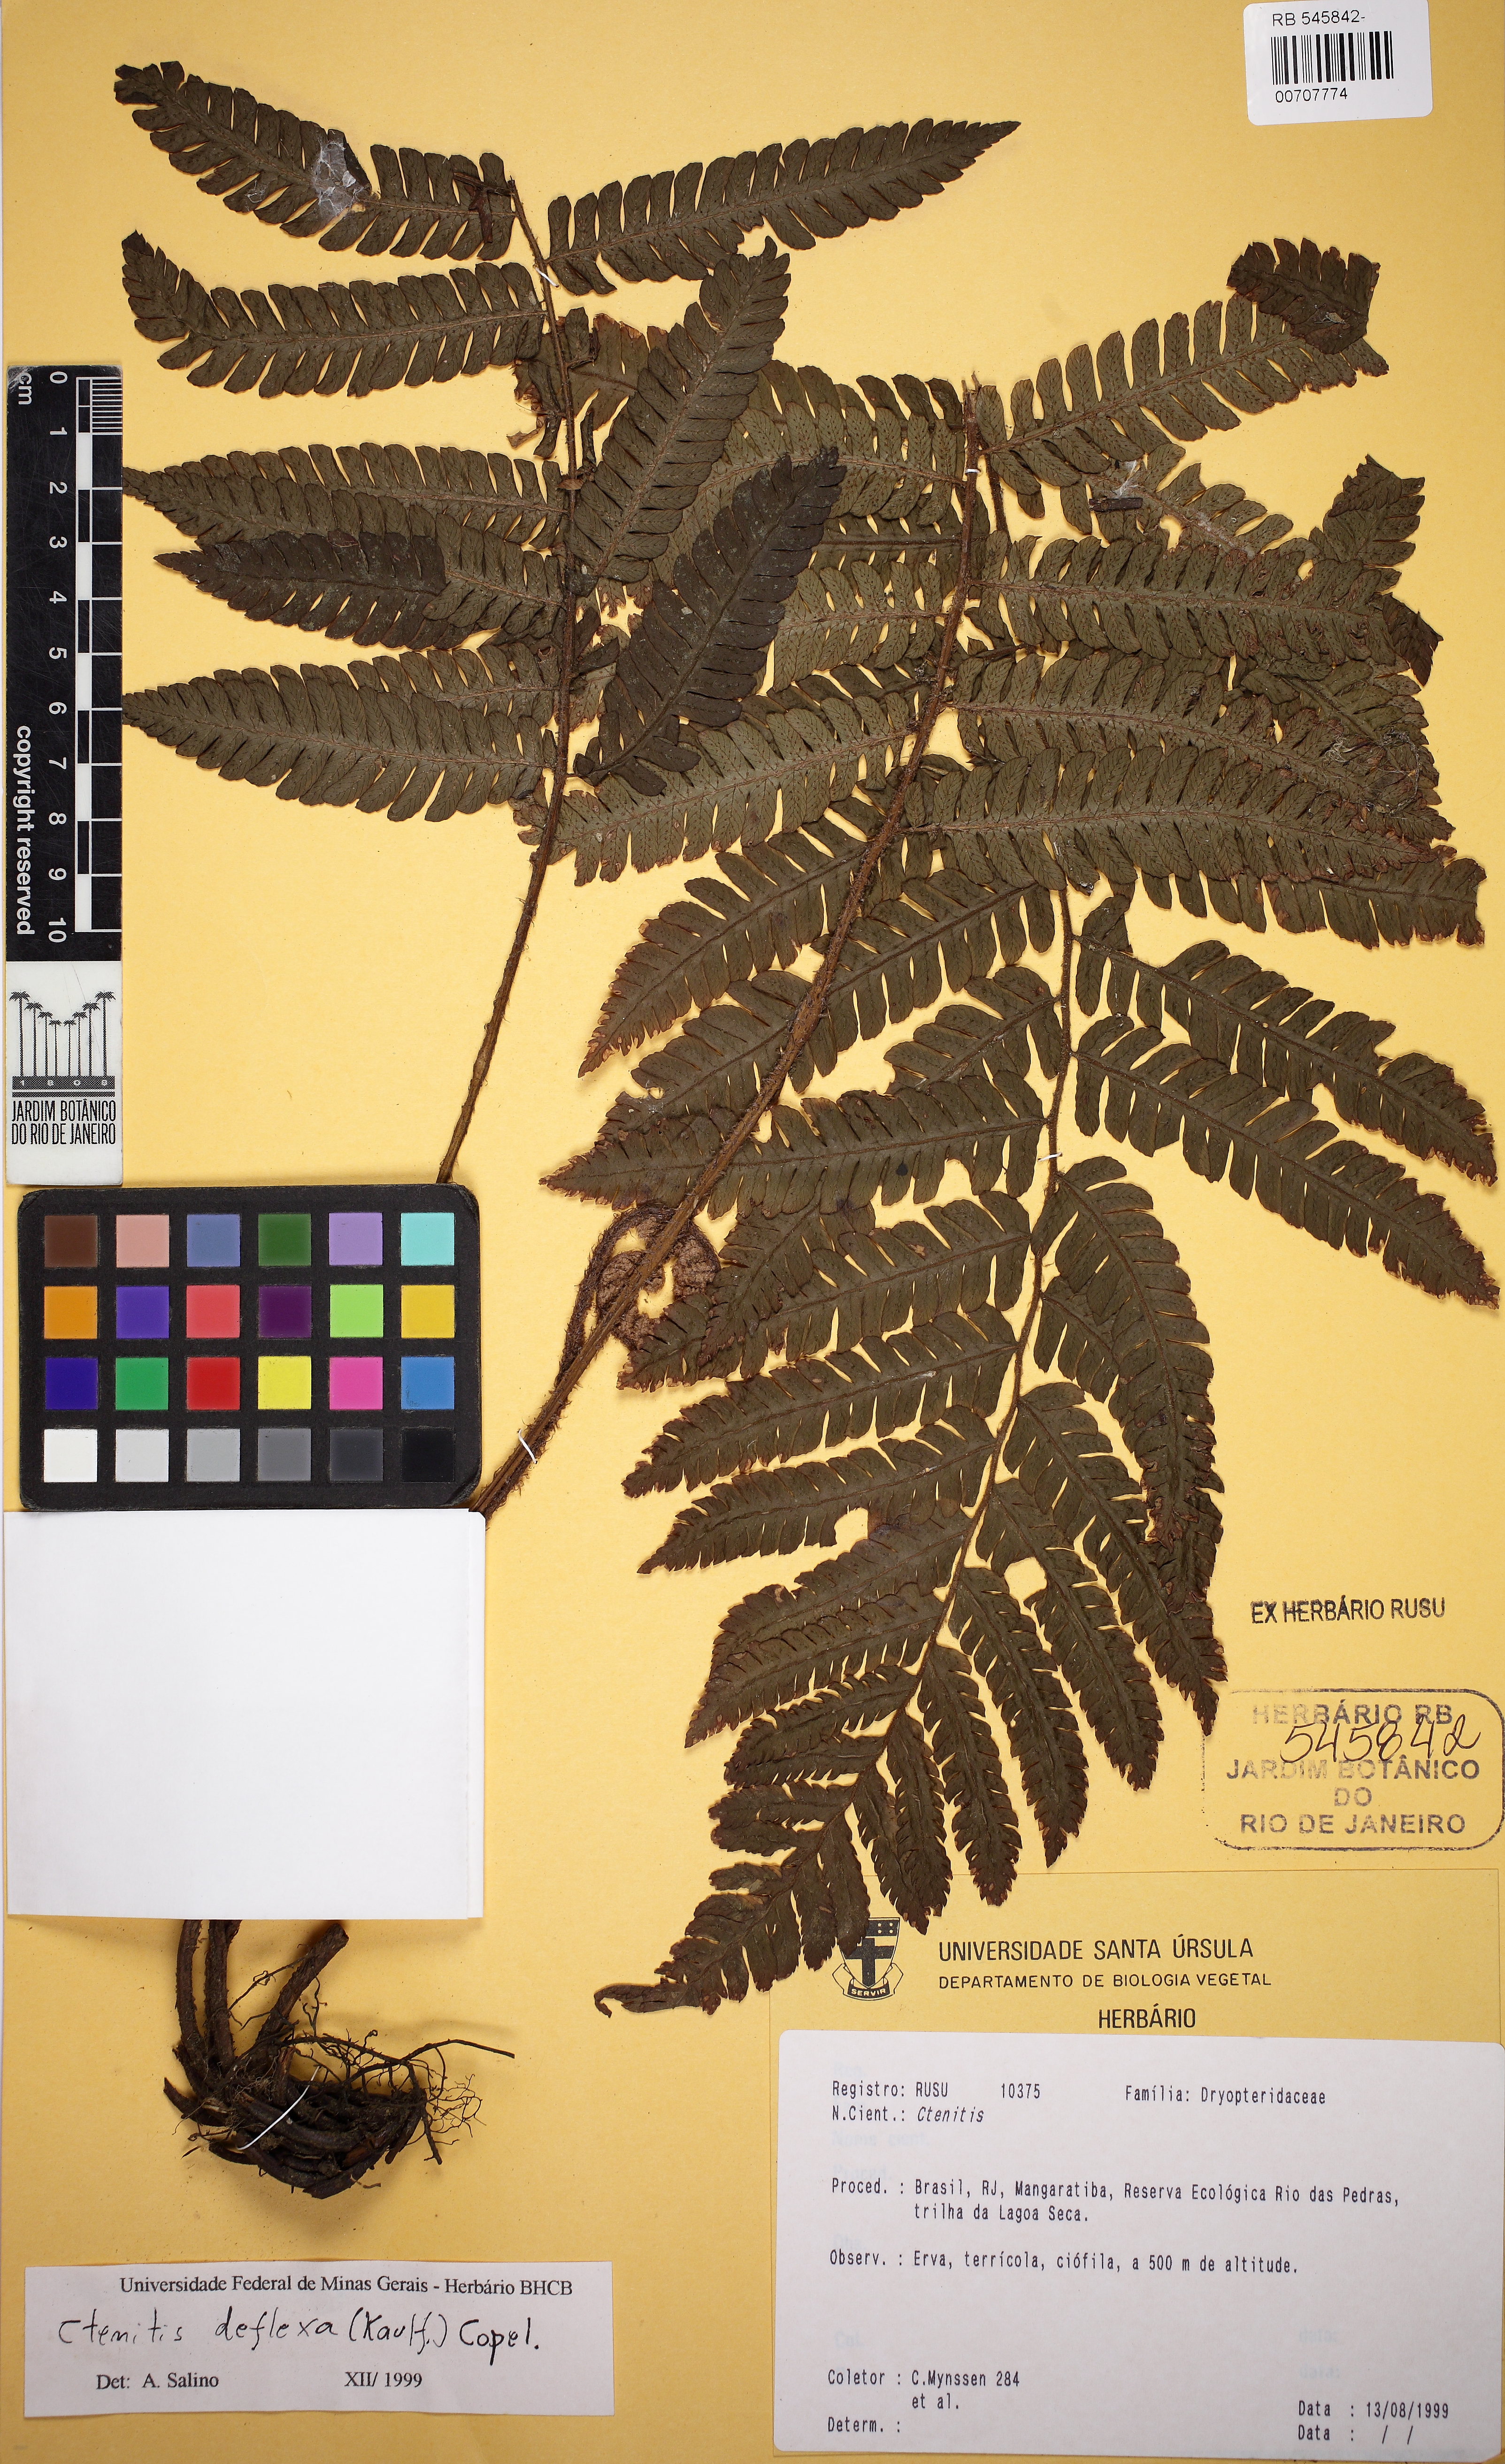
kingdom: Plantae
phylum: Tracheophyta
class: Polypodiopsida
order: Polypodiales
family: Dryopteridaceae
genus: Ctenitis
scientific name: Ctenitis deflexa
